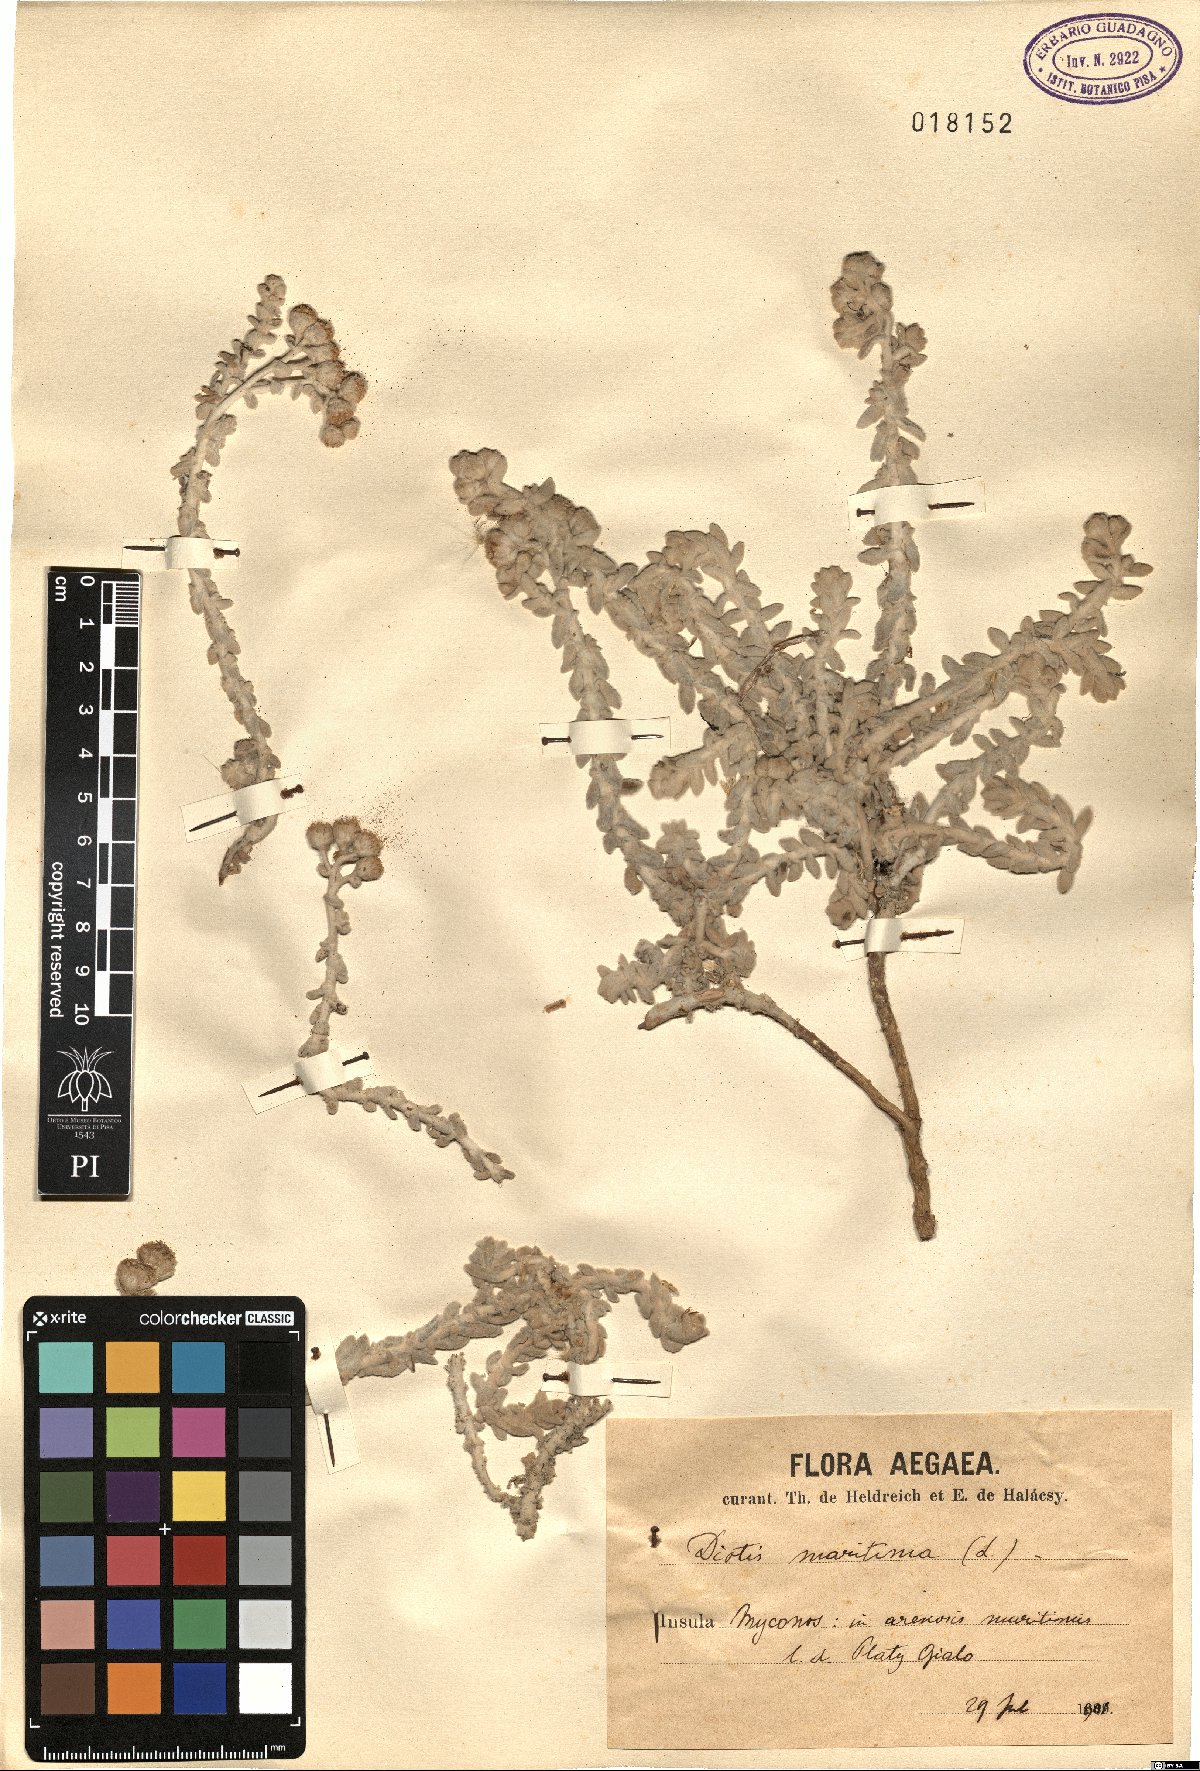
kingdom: Plantae
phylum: Tracheophyta
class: Magnoliopsida
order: Asterales
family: Asteraceae
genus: Achillea
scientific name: Achillea maritima
